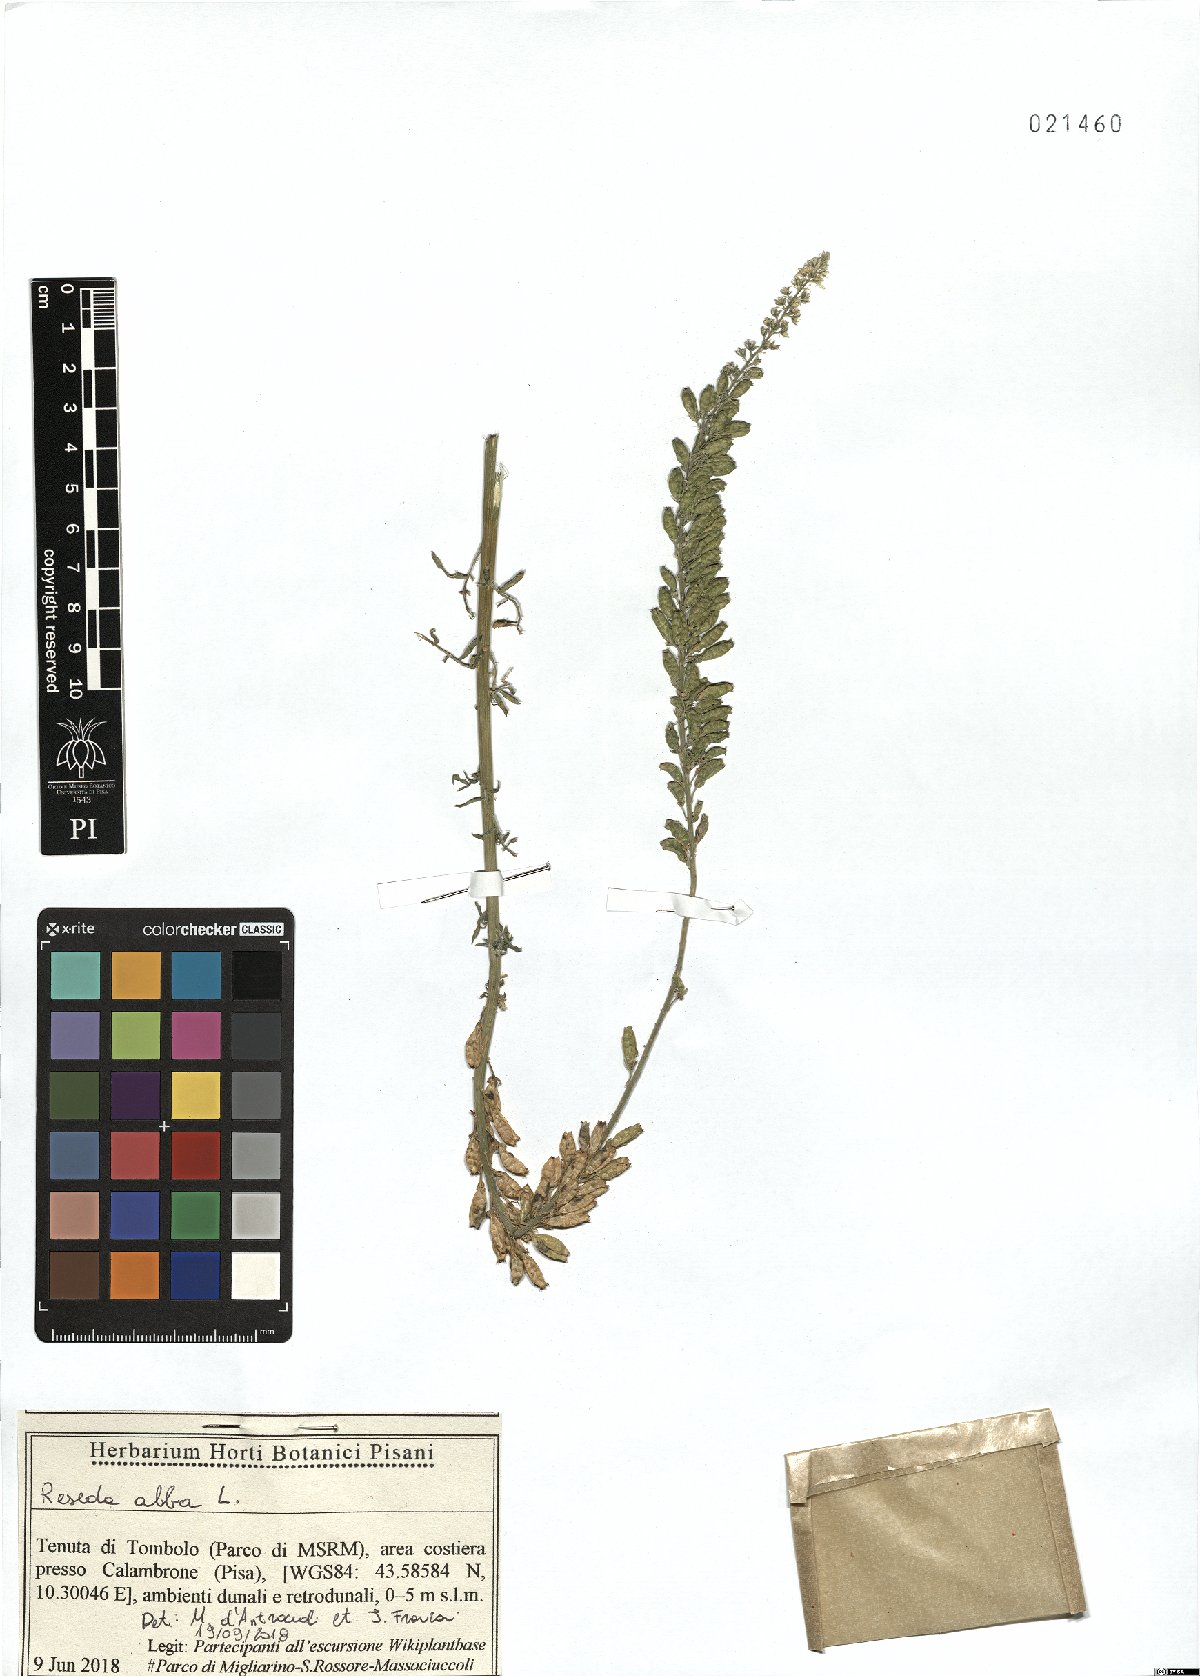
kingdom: Plantae
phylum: Tracheophyta
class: Magnoliopsida
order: Brassicales
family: Resedaceae
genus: Reseda
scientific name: Reseda alba
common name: White mignonette
